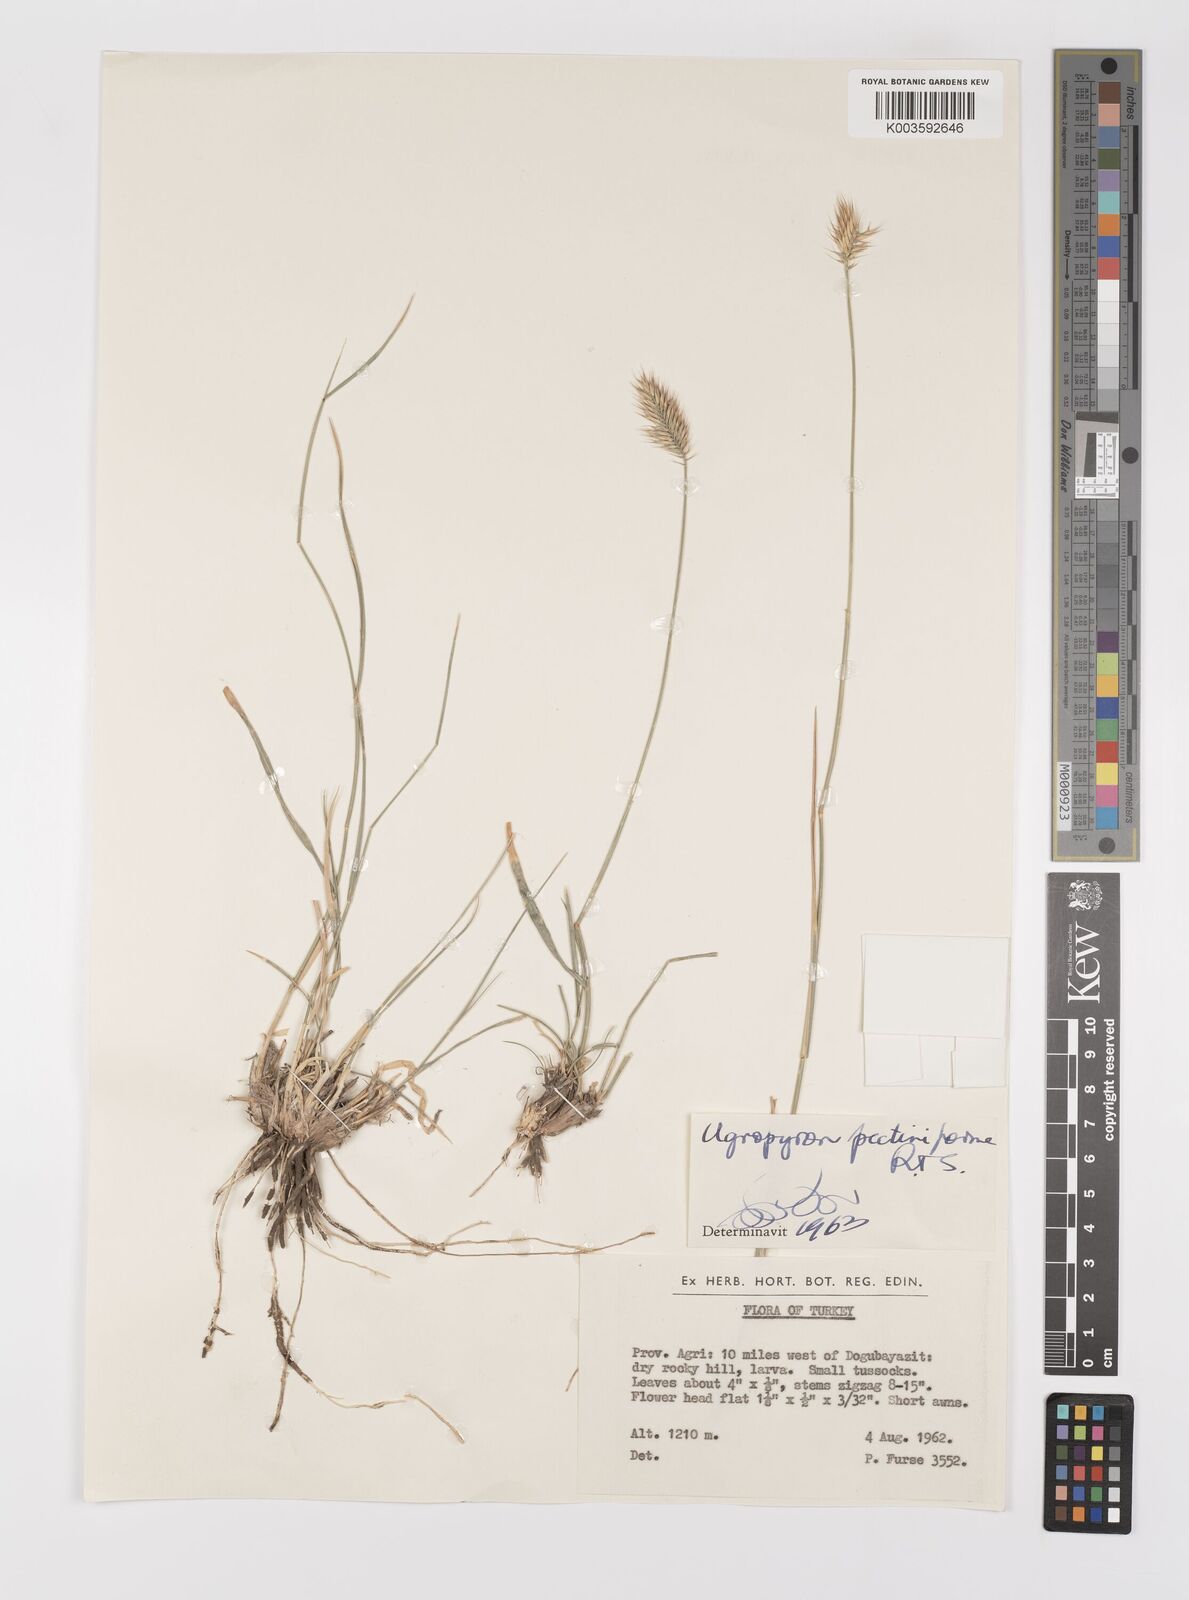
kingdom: Plantae
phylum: Tracheophyta
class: Liliopsida
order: Poales
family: Poaceae
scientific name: Poaceae
